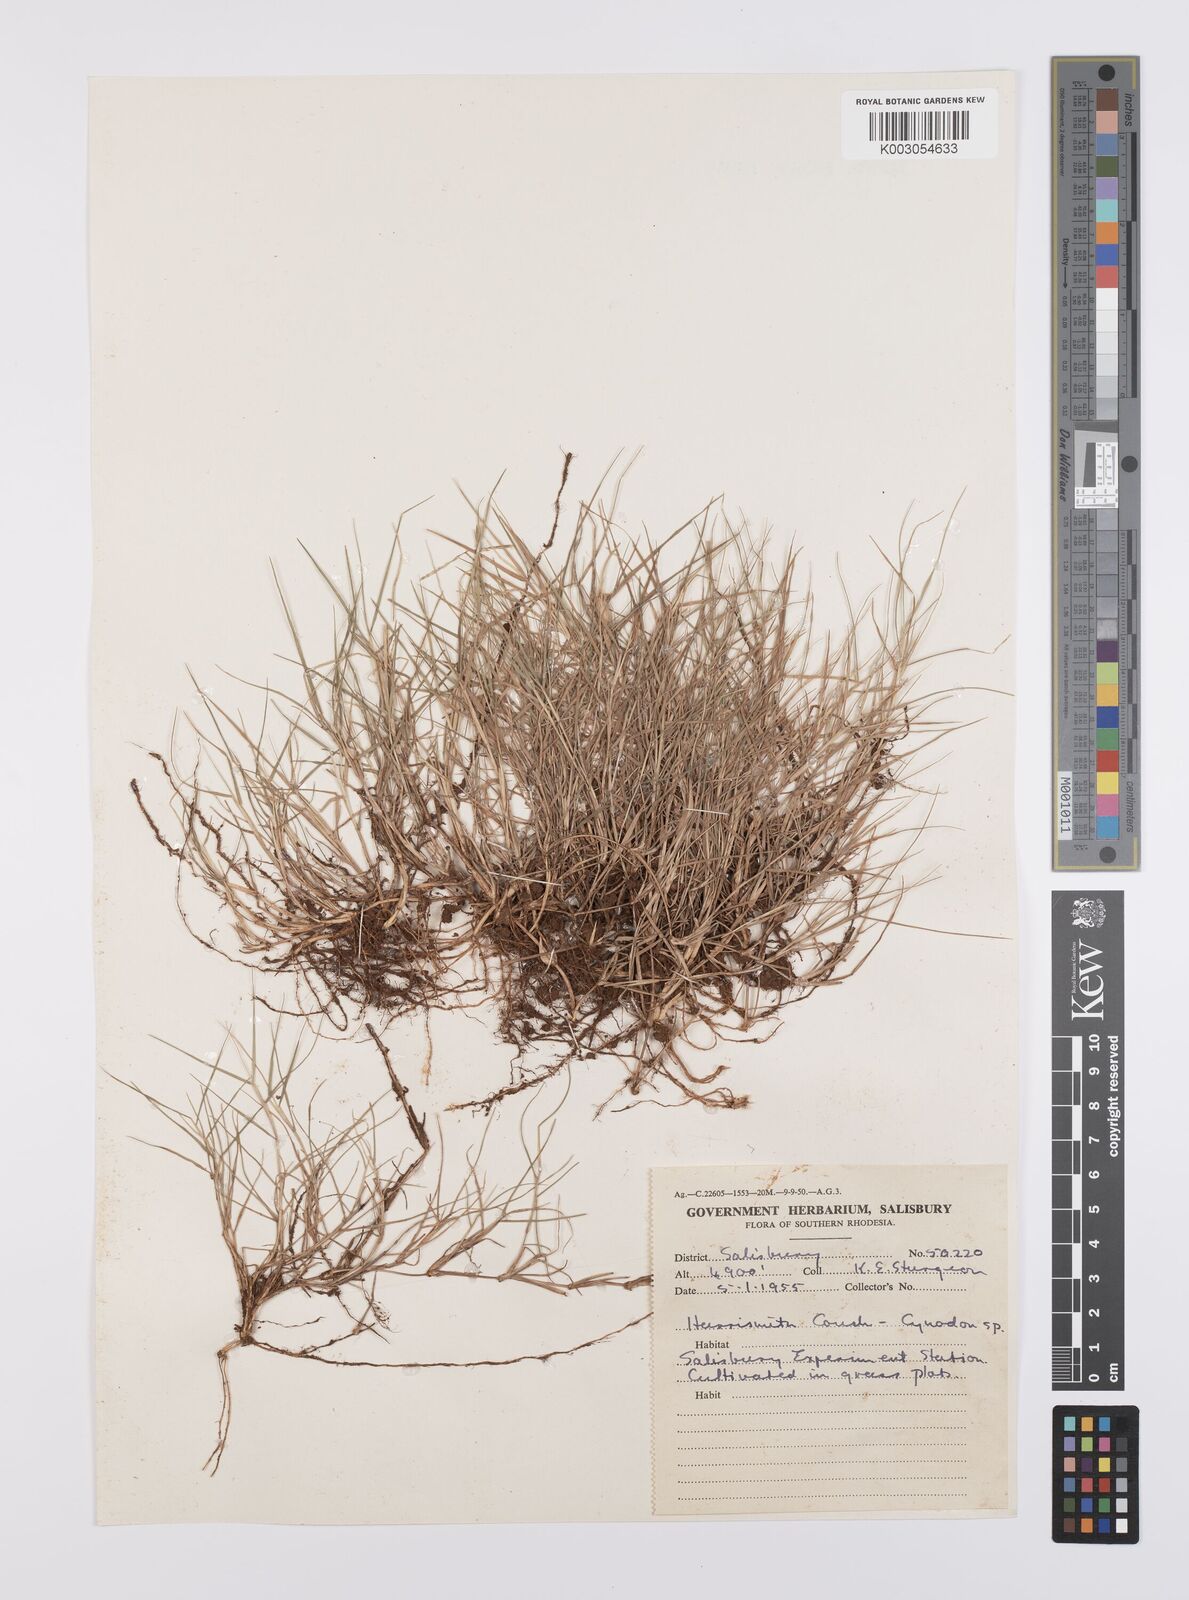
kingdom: Plantae
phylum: Tracheophyta
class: Liliopsida
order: Poales
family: Poaceae
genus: Cynodon
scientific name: Cynodon dactylon
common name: Bermuda grass
